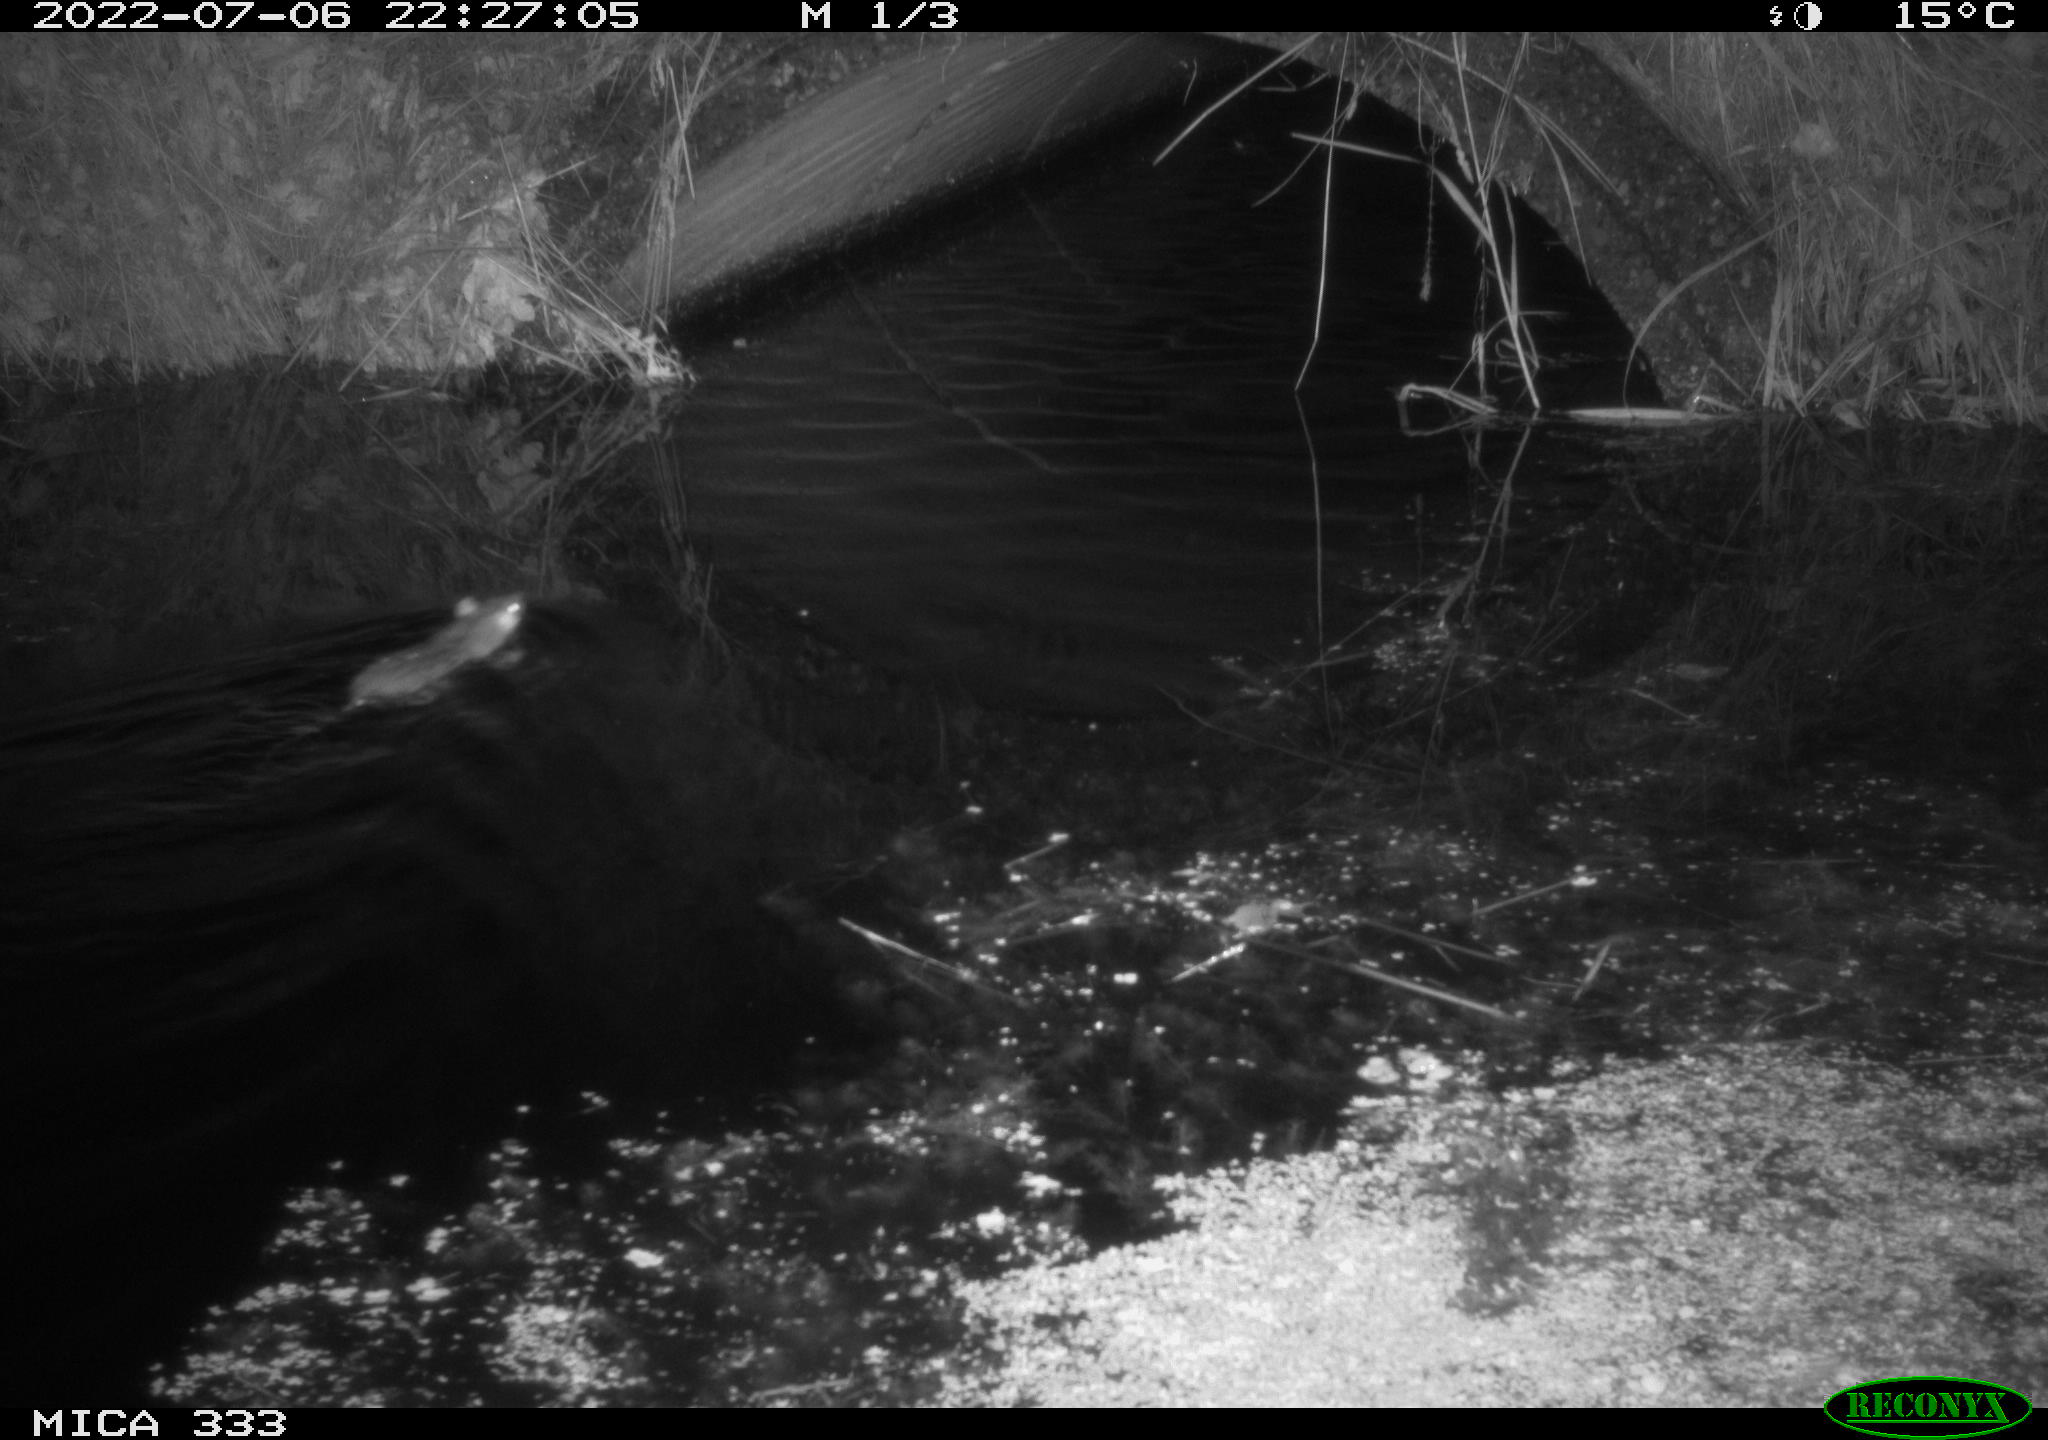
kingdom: Animalia
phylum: Chordata
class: Mammalia
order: Rodentia
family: Muridae
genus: Rattus
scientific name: Rattus norvegicus
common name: Brown rat
